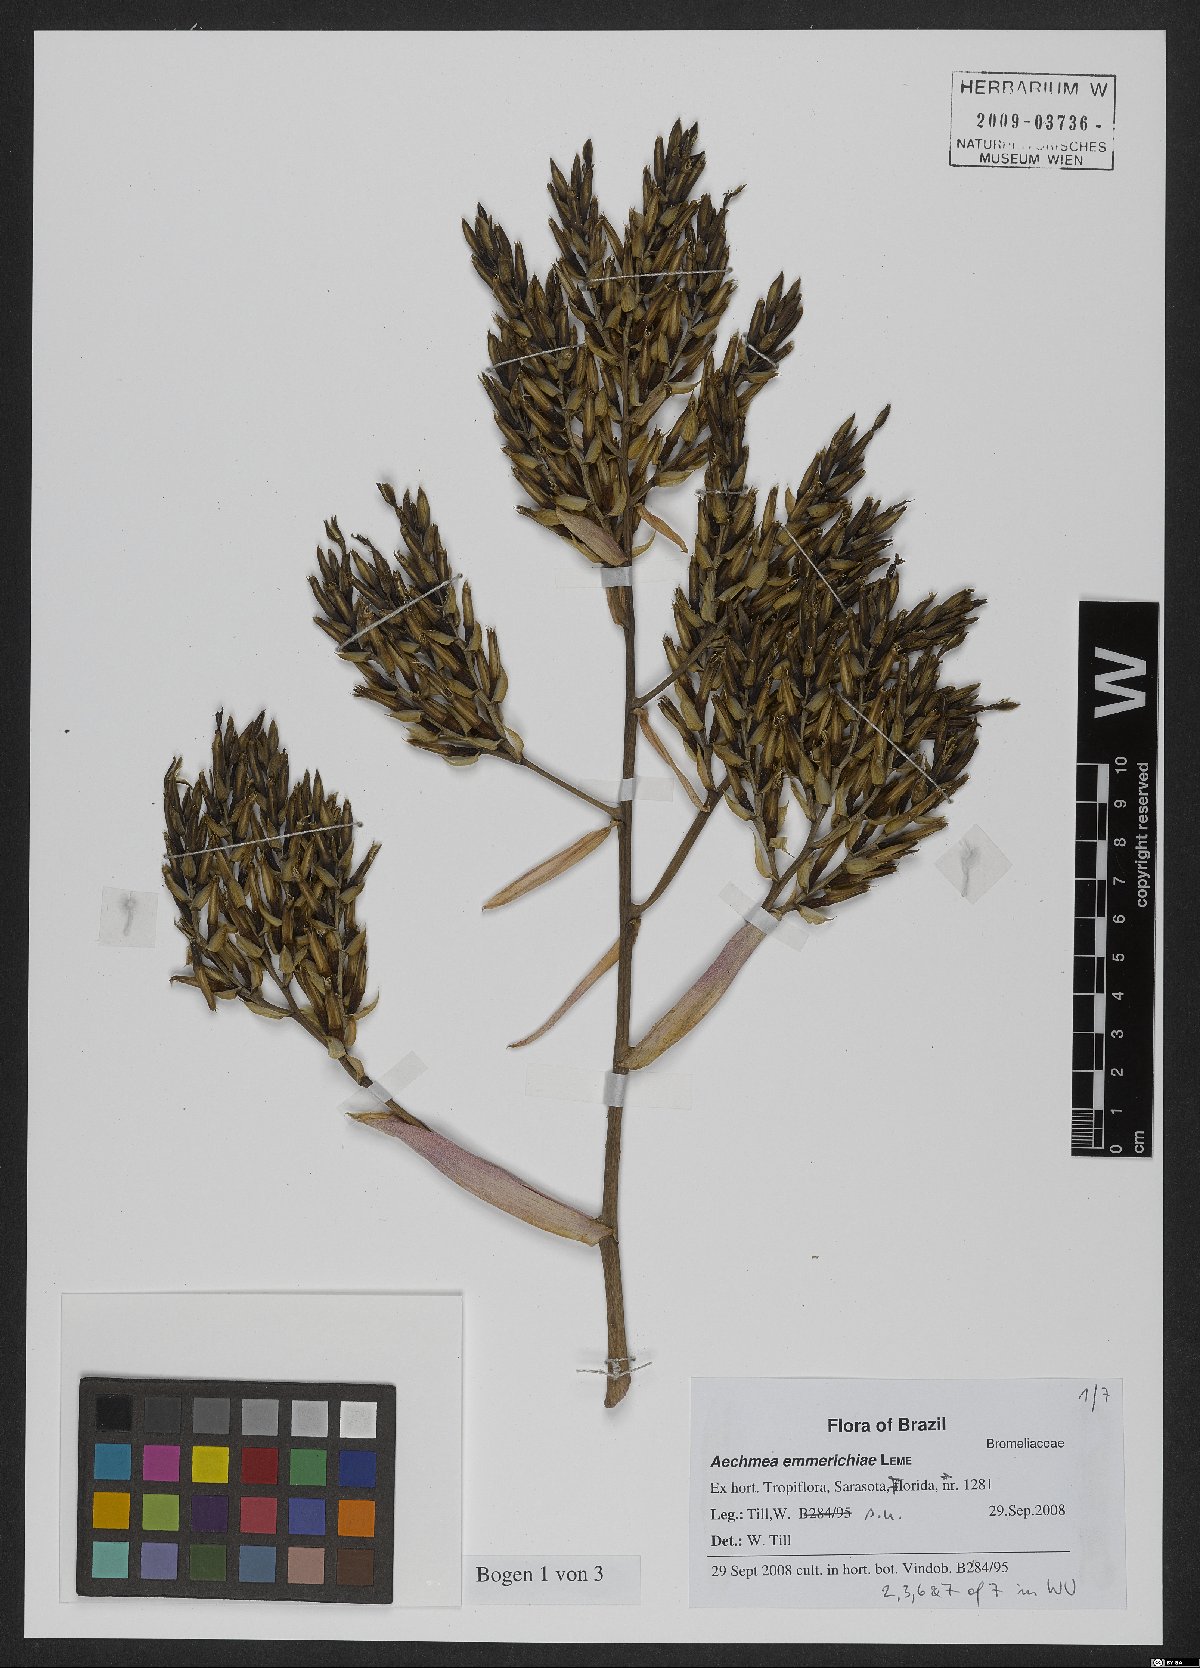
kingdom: Plantae
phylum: Tracheophyta
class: Liliopsida
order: Poales
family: Bromeliaceae
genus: Aechmea
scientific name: Aechmea emmerichiae
